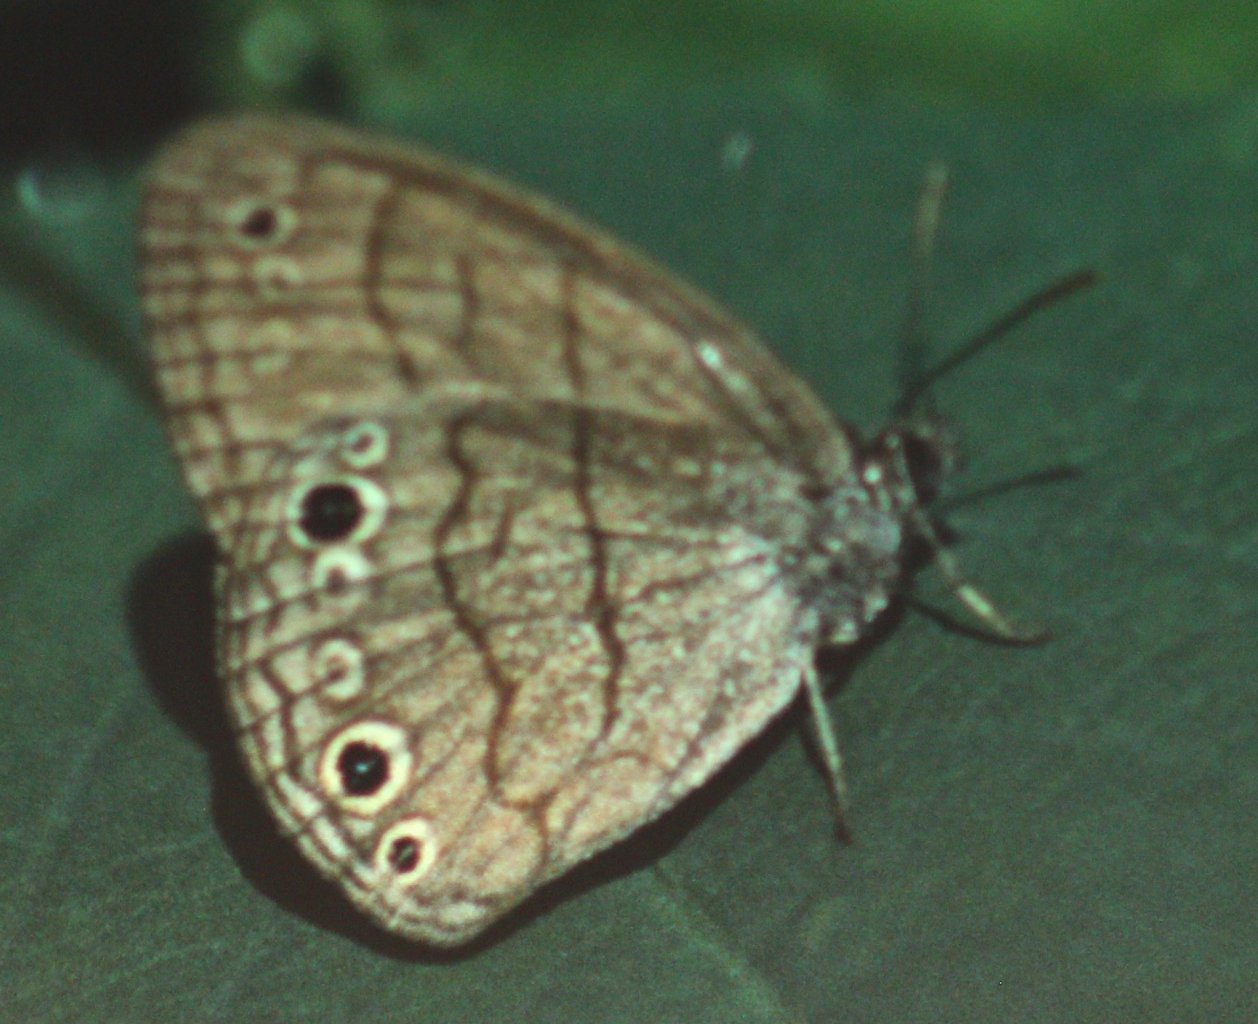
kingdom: Animalia
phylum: Arthropoda
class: Insecta
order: Lepidoptera
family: Nymphalidae
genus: Hermeuptychia
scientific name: Hermeuptychia hermes
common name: Carolina Satyr
